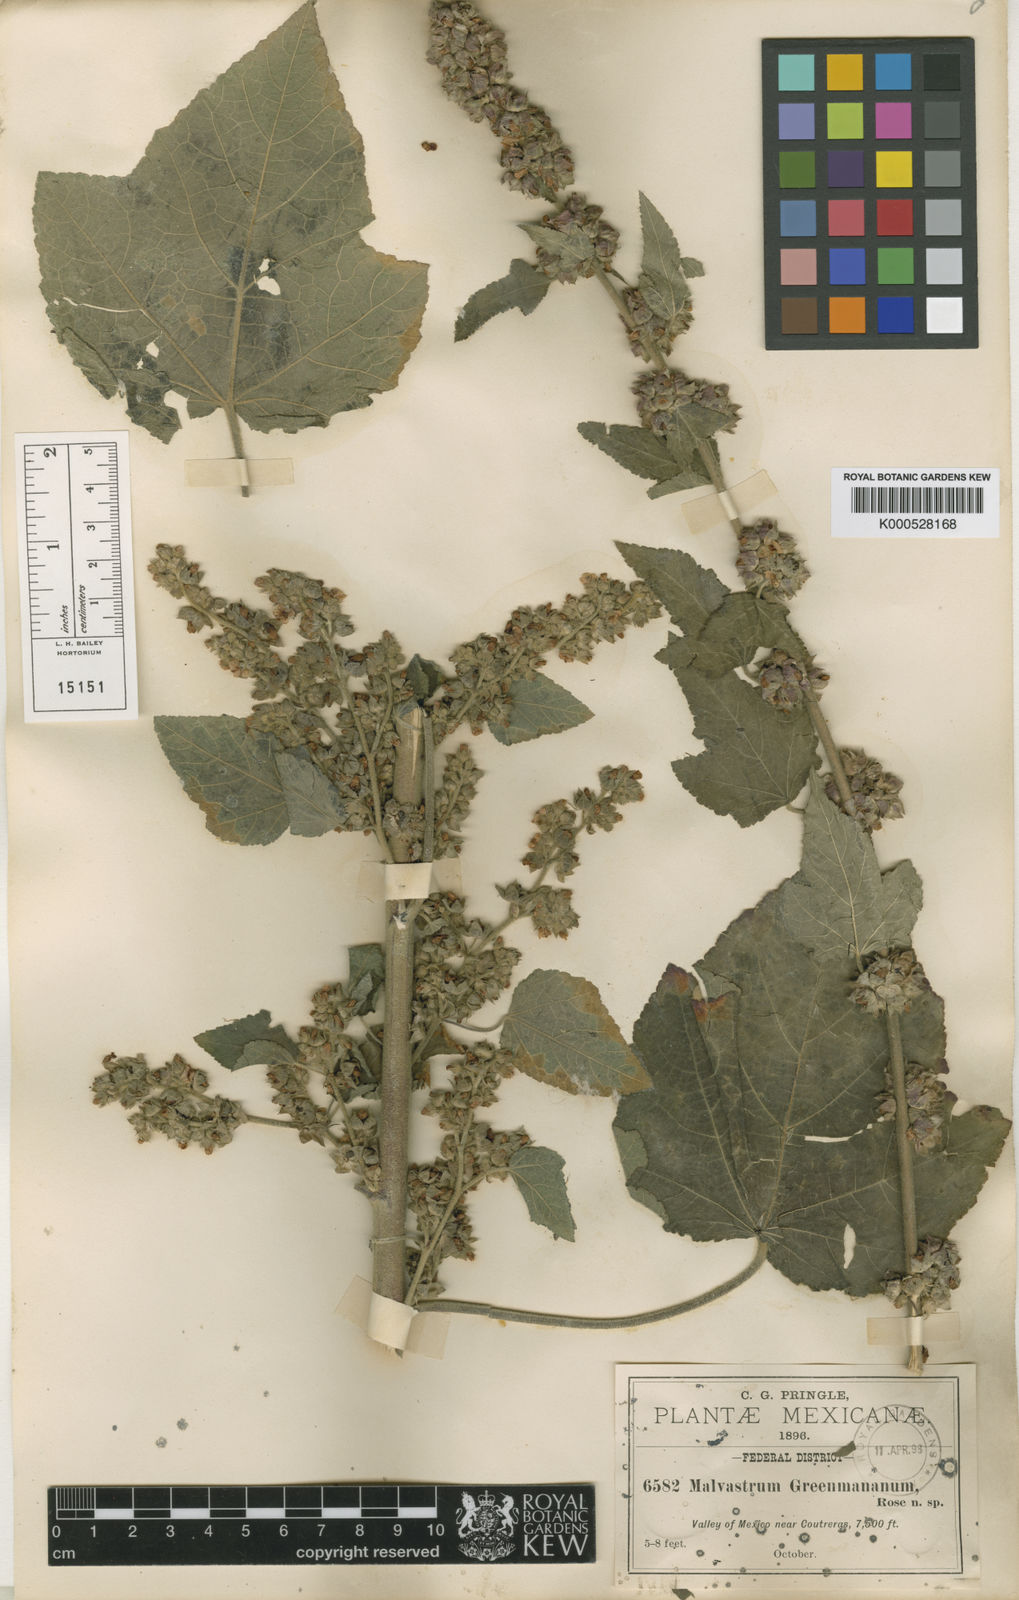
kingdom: Plantae
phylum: Tracheophyta
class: Magnoliopsida
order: Malvales
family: Malvaceae
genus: Kearnemalvastrum
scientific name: Kearnemalvastrum subtriflorum
